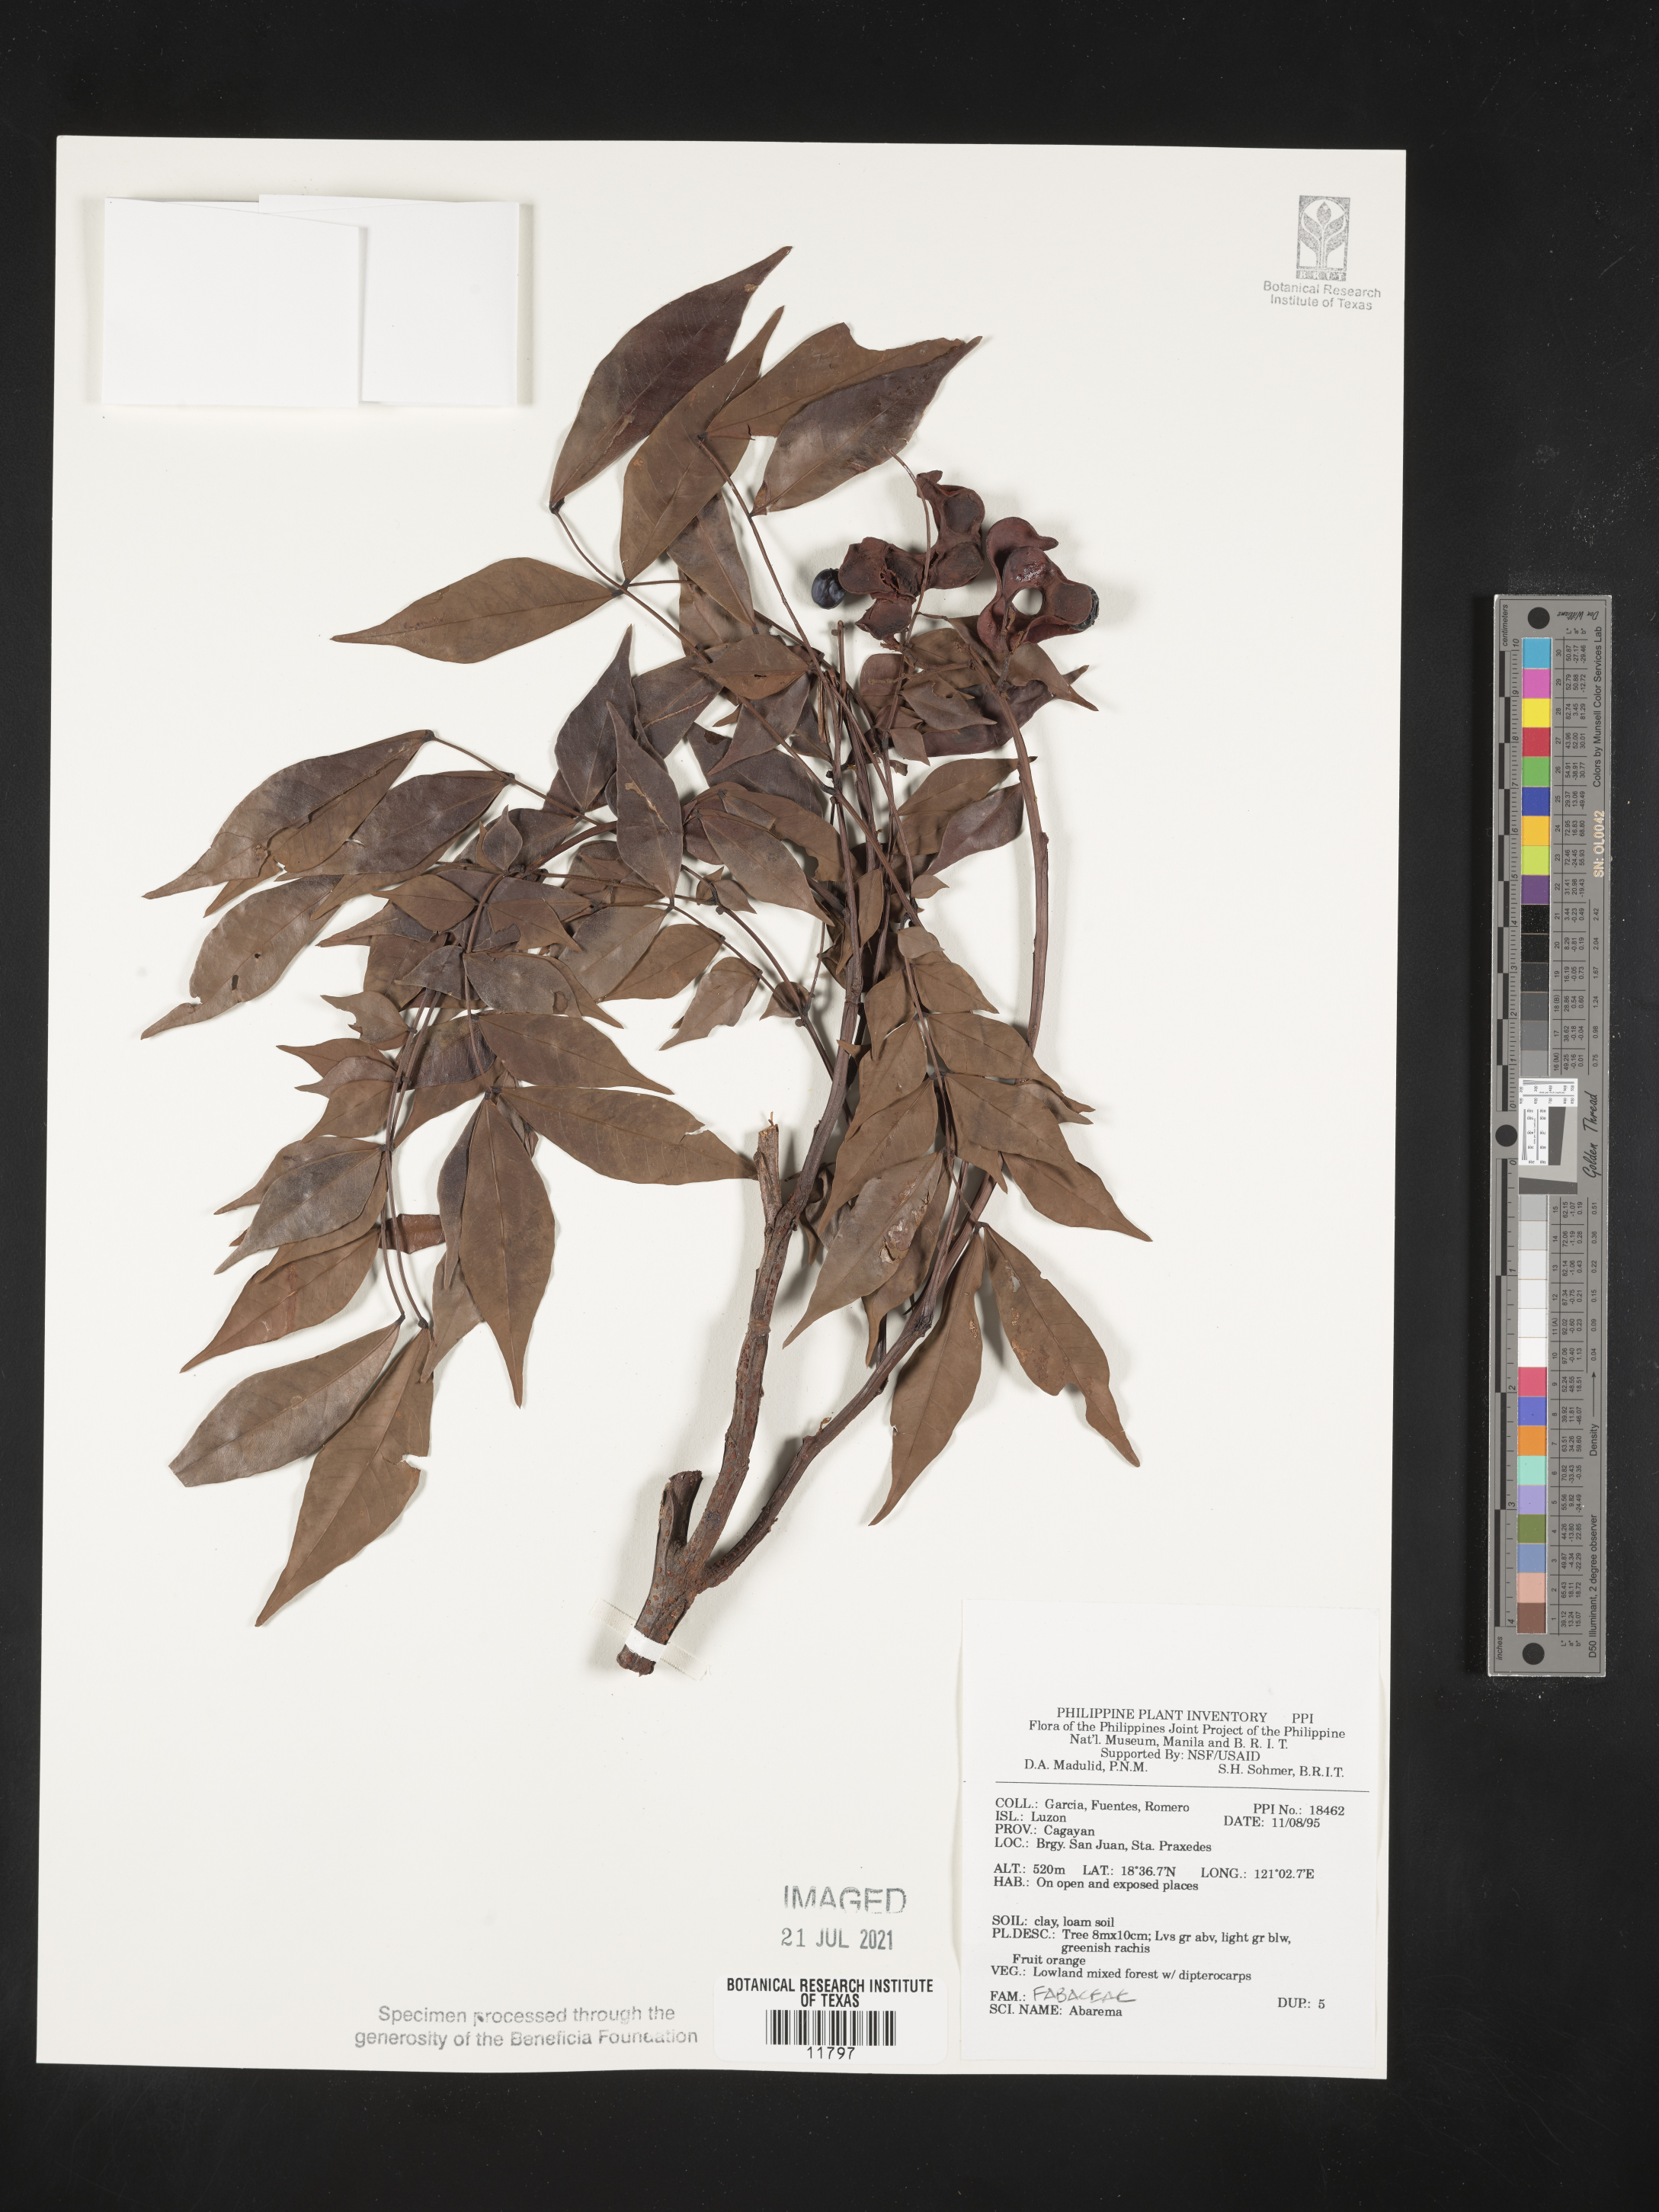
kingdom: Plantae
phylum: Tracheophyta
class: Magnoliopsida
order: Fabales
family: Fabaceae
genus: Abarema
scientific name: Abarema
